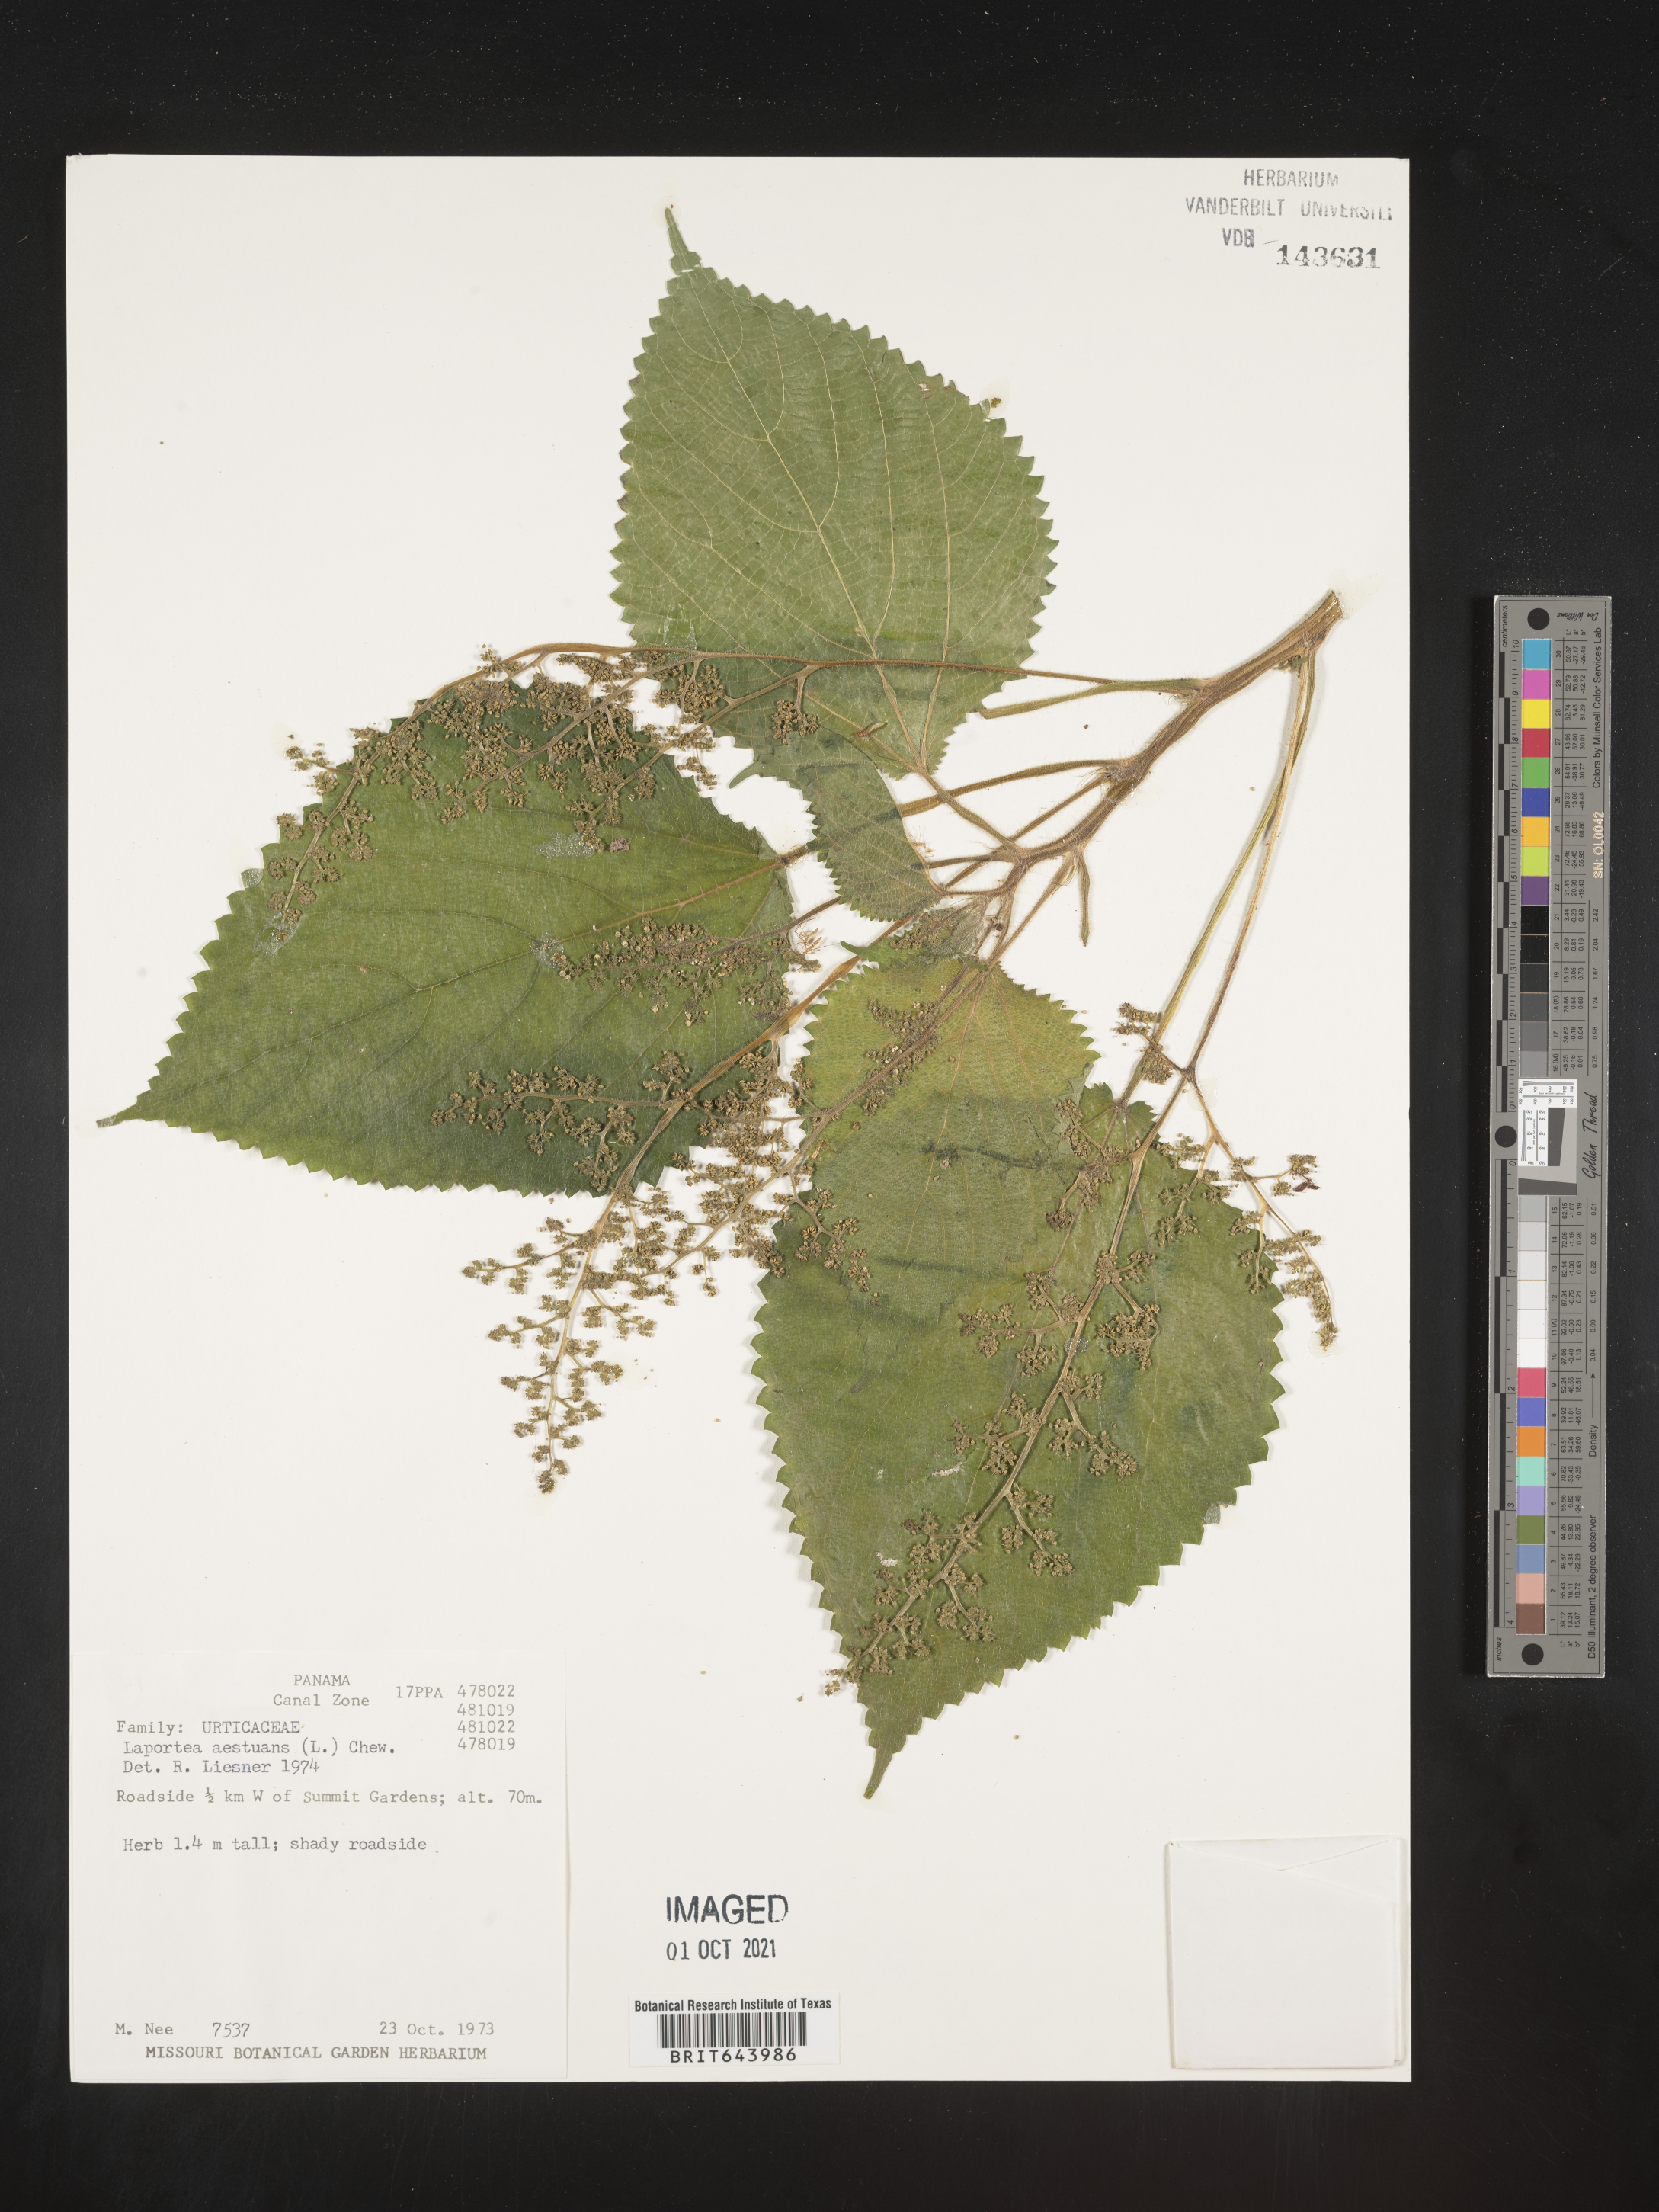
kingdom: Plantae
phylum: Tracheophyta
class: Magnoliopsida
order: Rosales
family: Urticaceae
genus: Laportea
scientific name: Laportea
